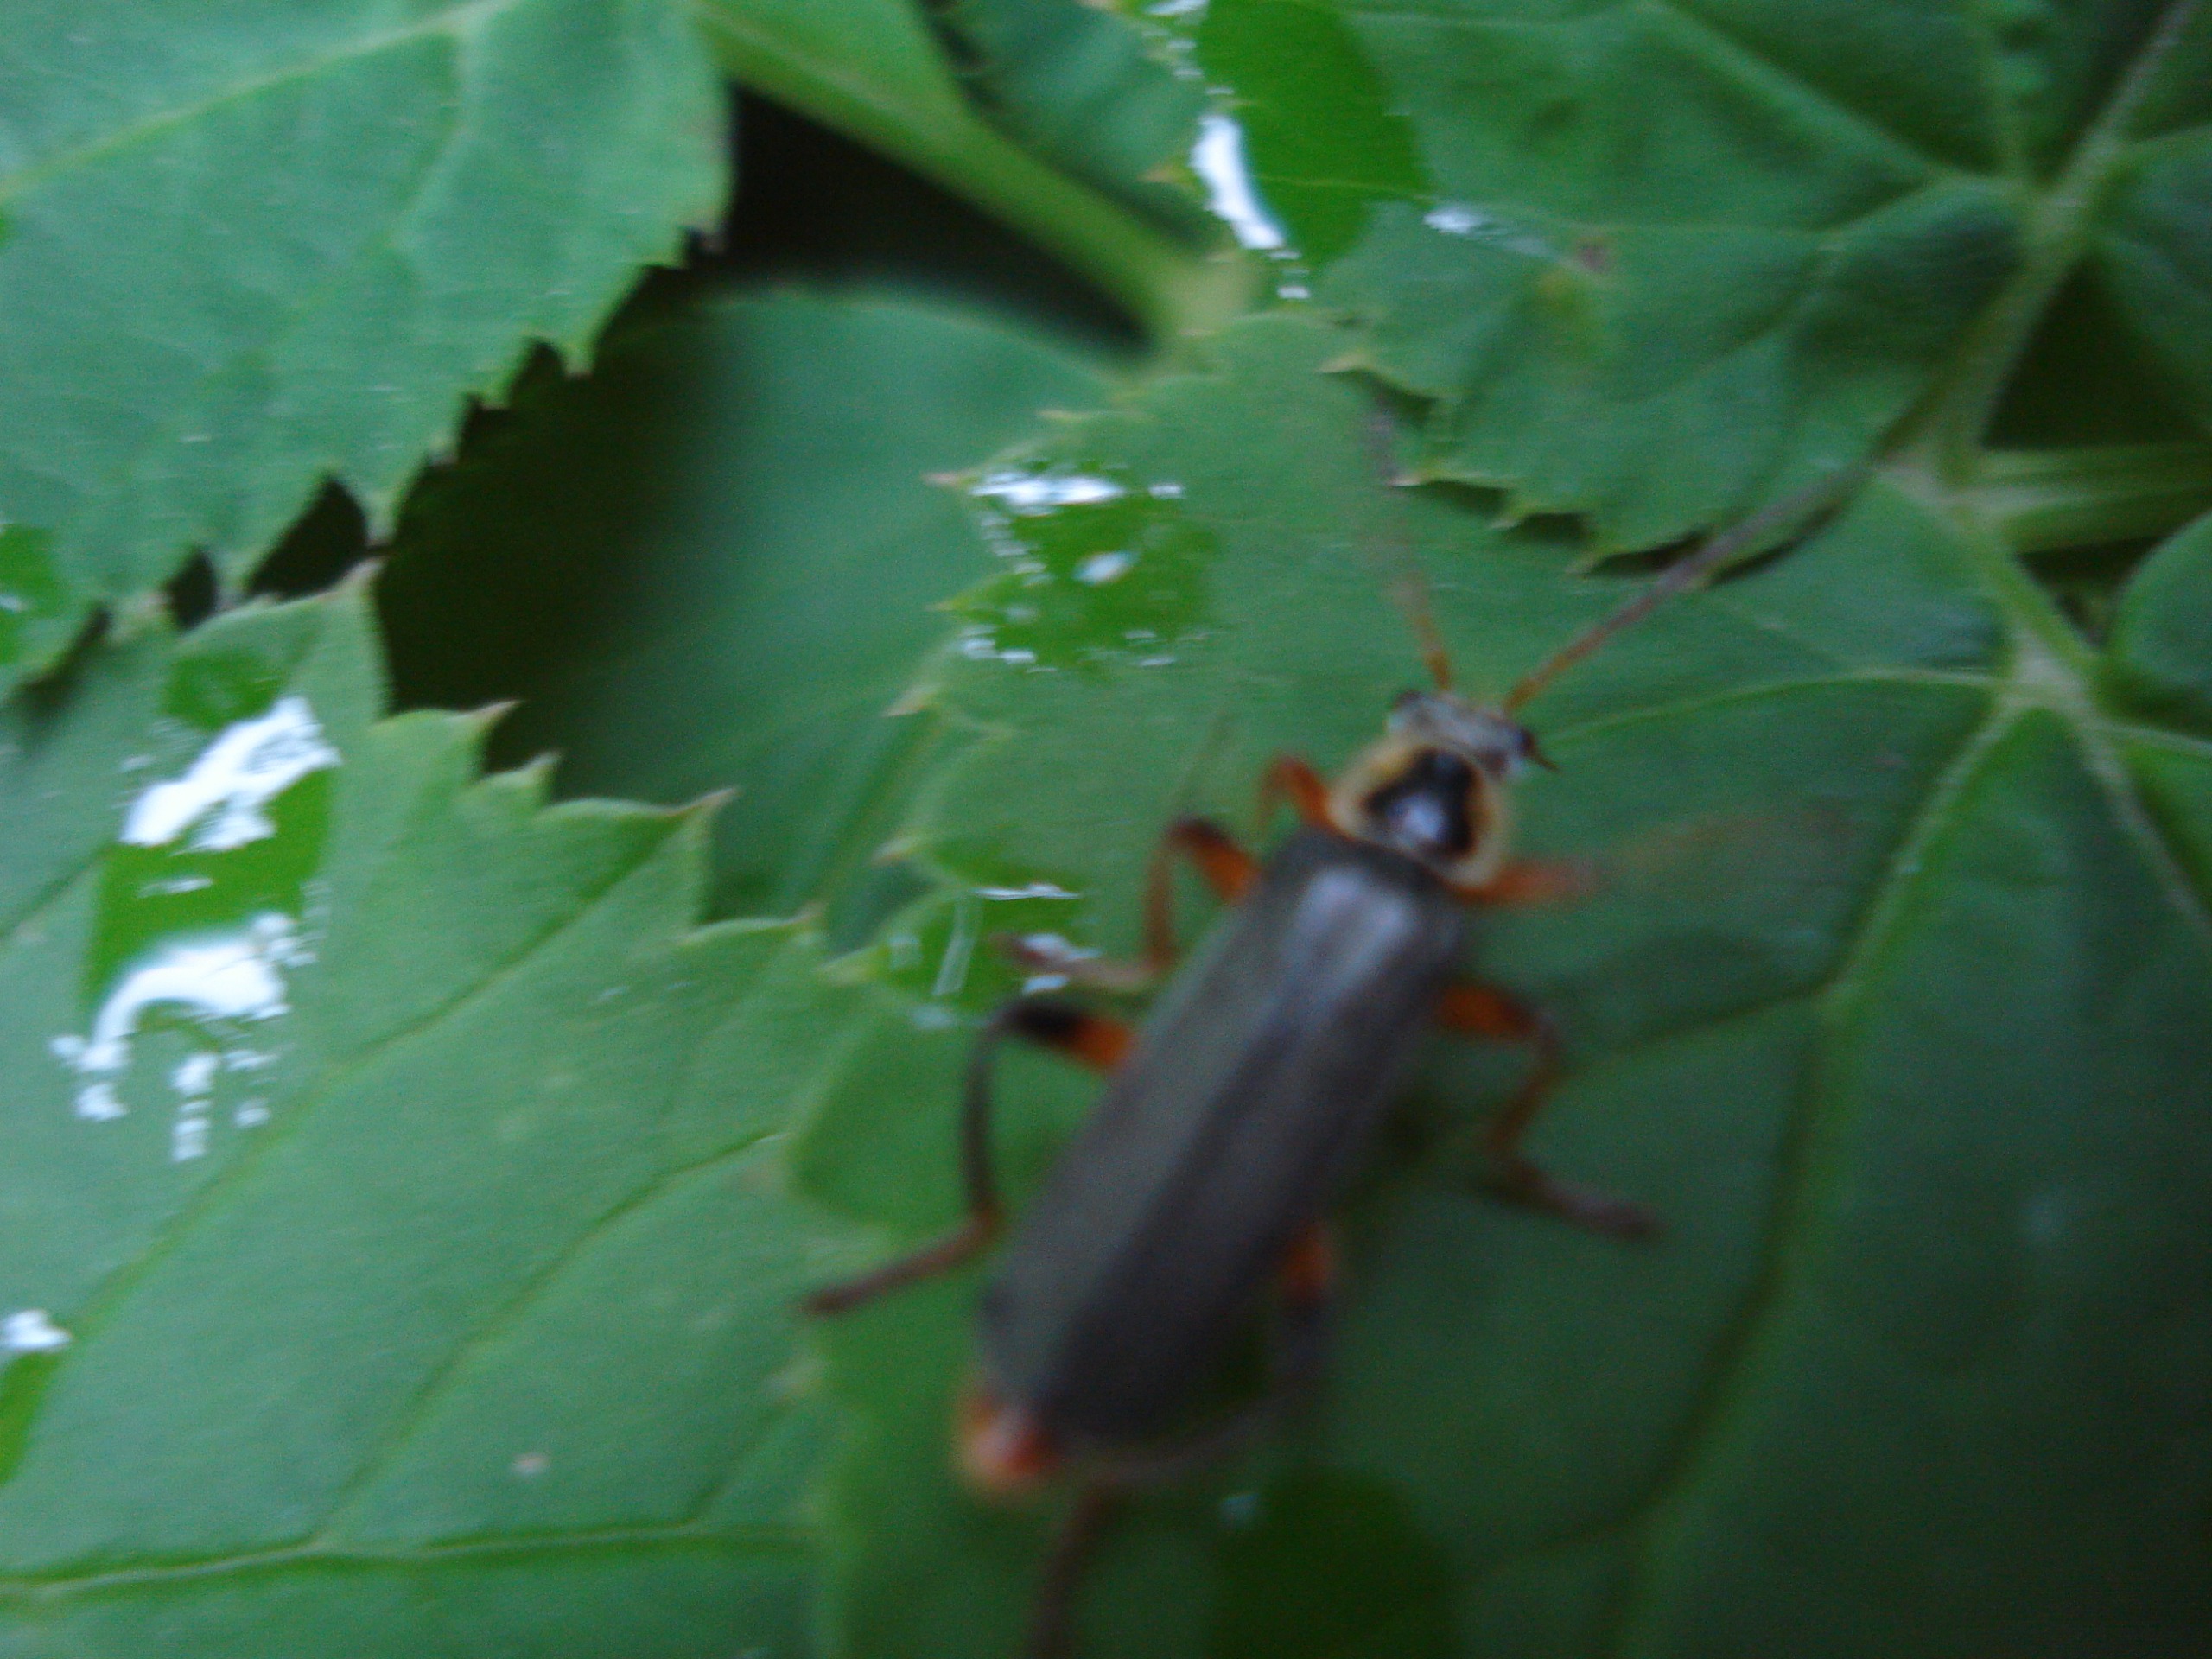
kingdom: Animalia
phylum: Arthropoda
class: Insecta
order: Coleoptera
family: Cantharidae
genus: Cantharis
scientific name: Cantharis nigricans
